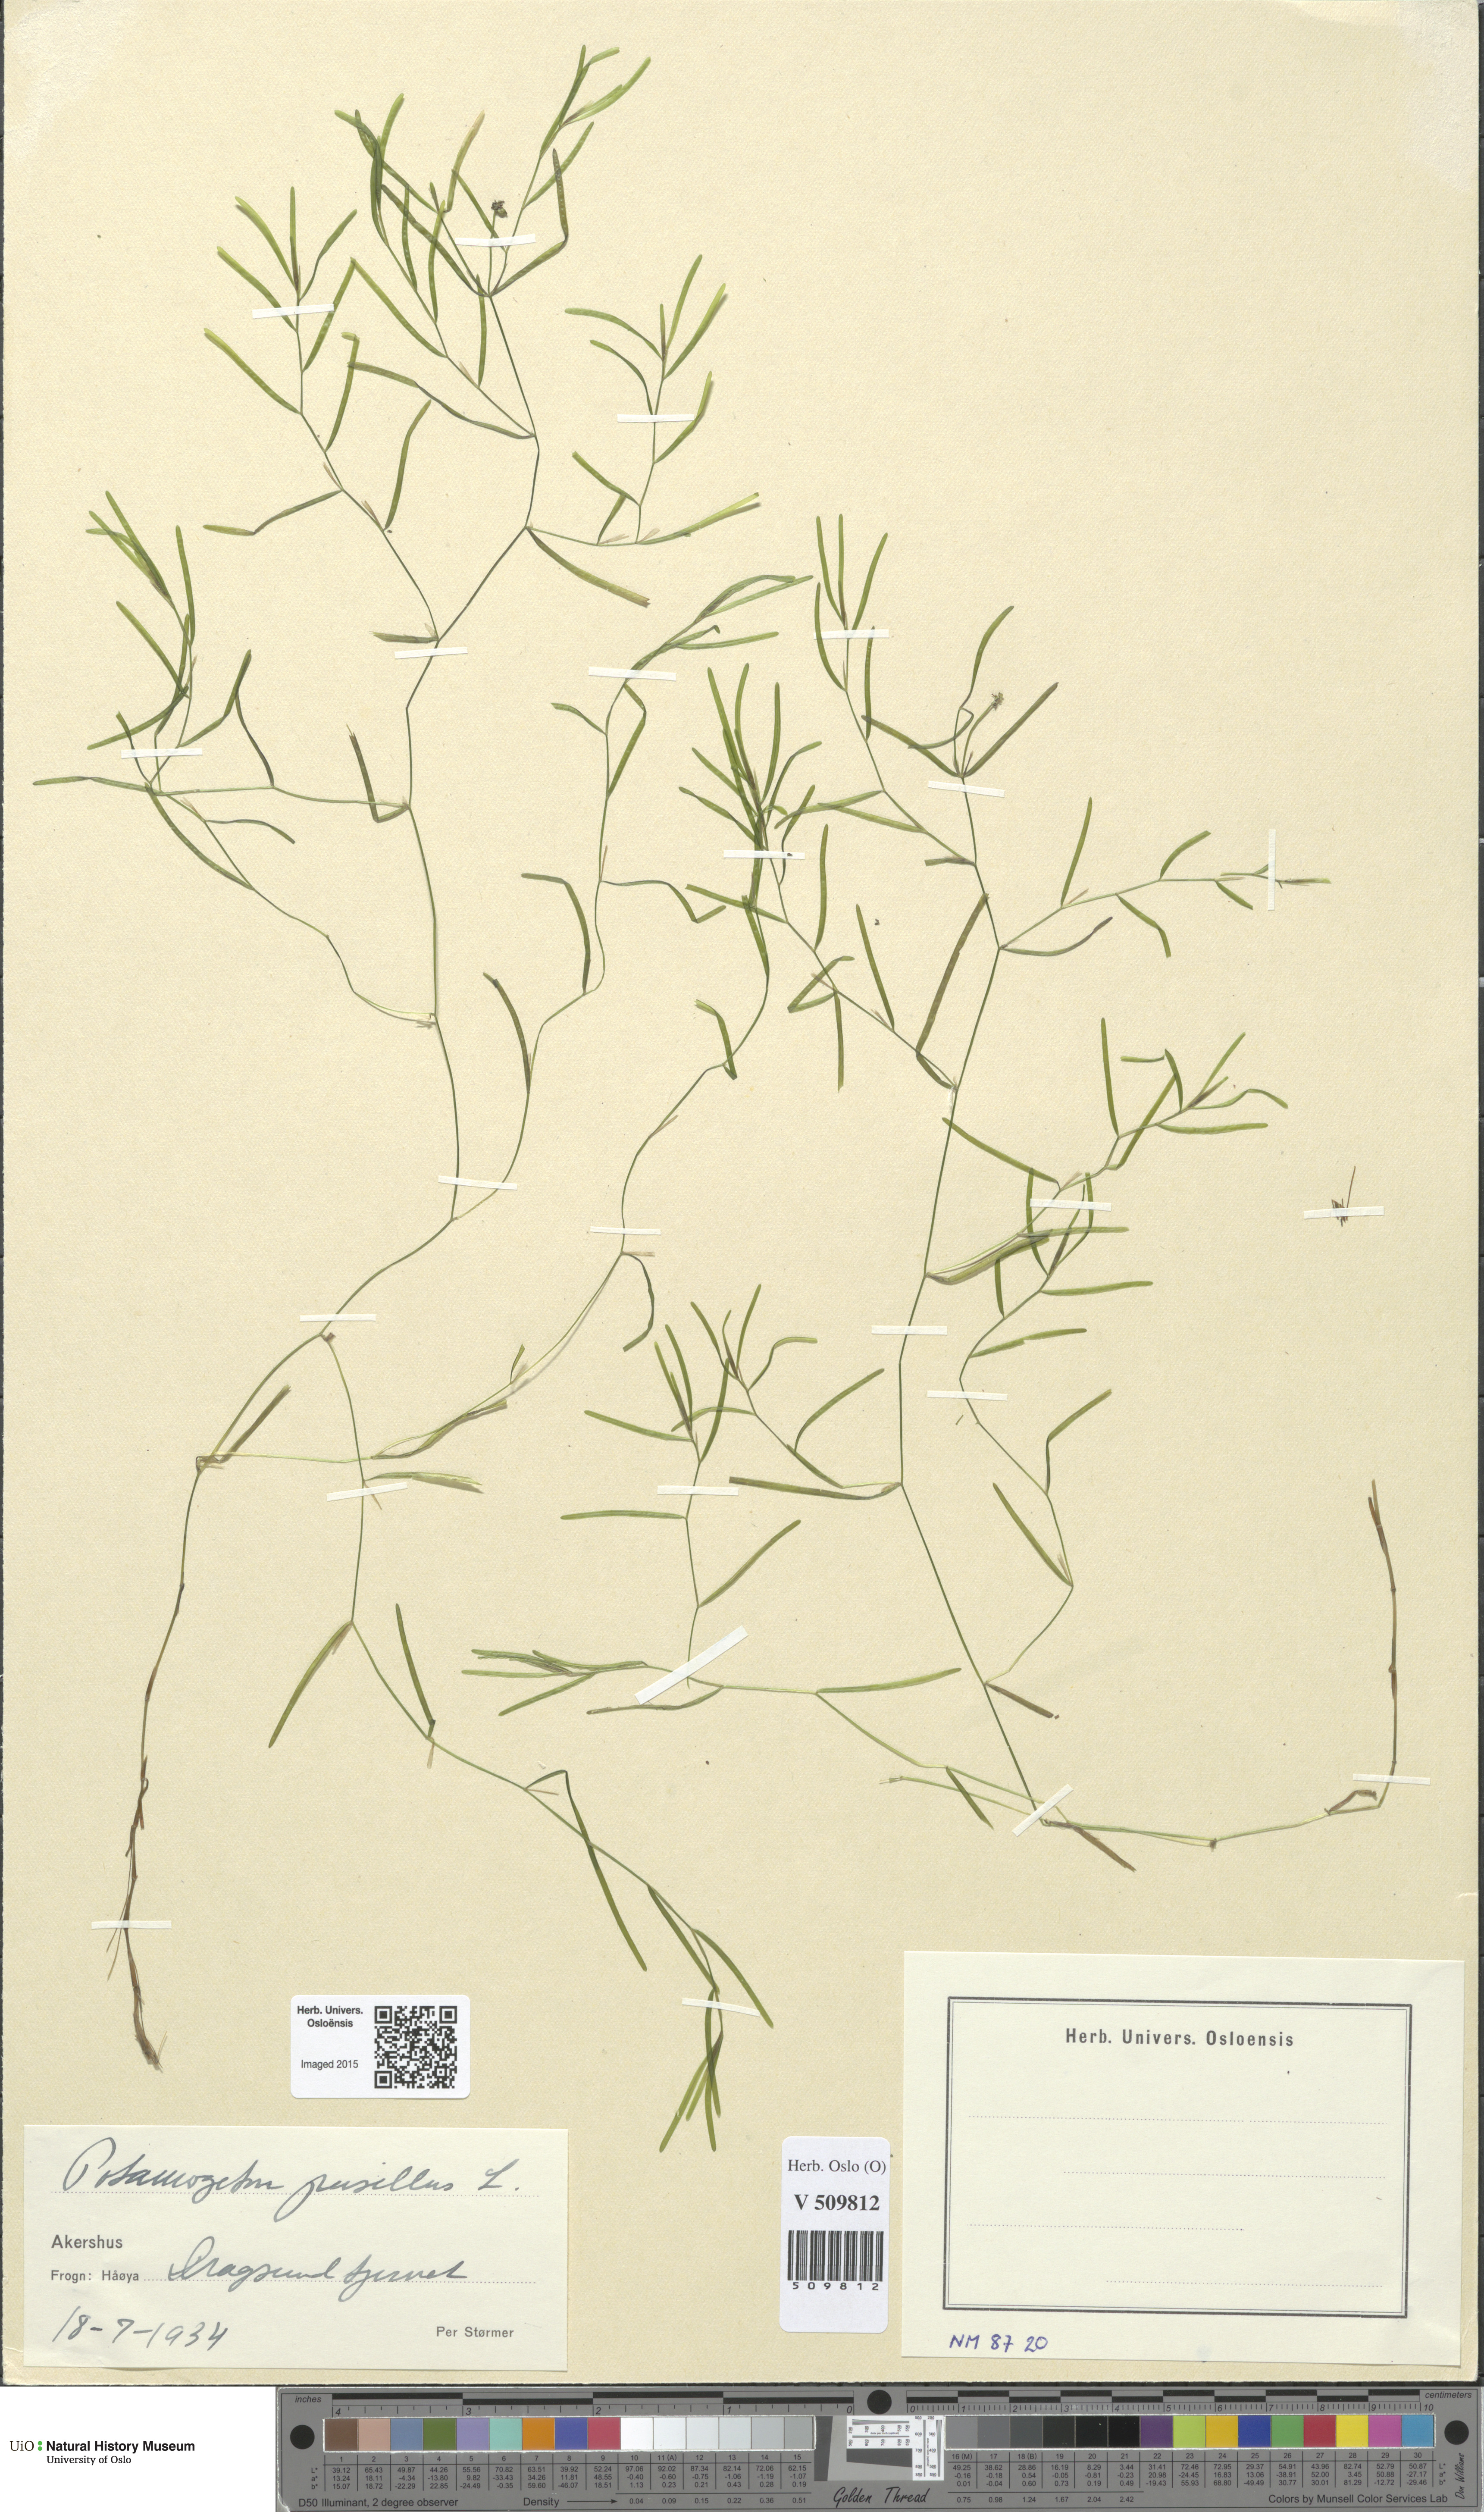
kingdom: Plantae
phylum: Tracheophyta
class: Liliopsida
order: Alismatales
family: Potamogetonaceae
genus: Potamogeton
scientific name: Potamogeton berchtoldii
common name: Small pondweed
